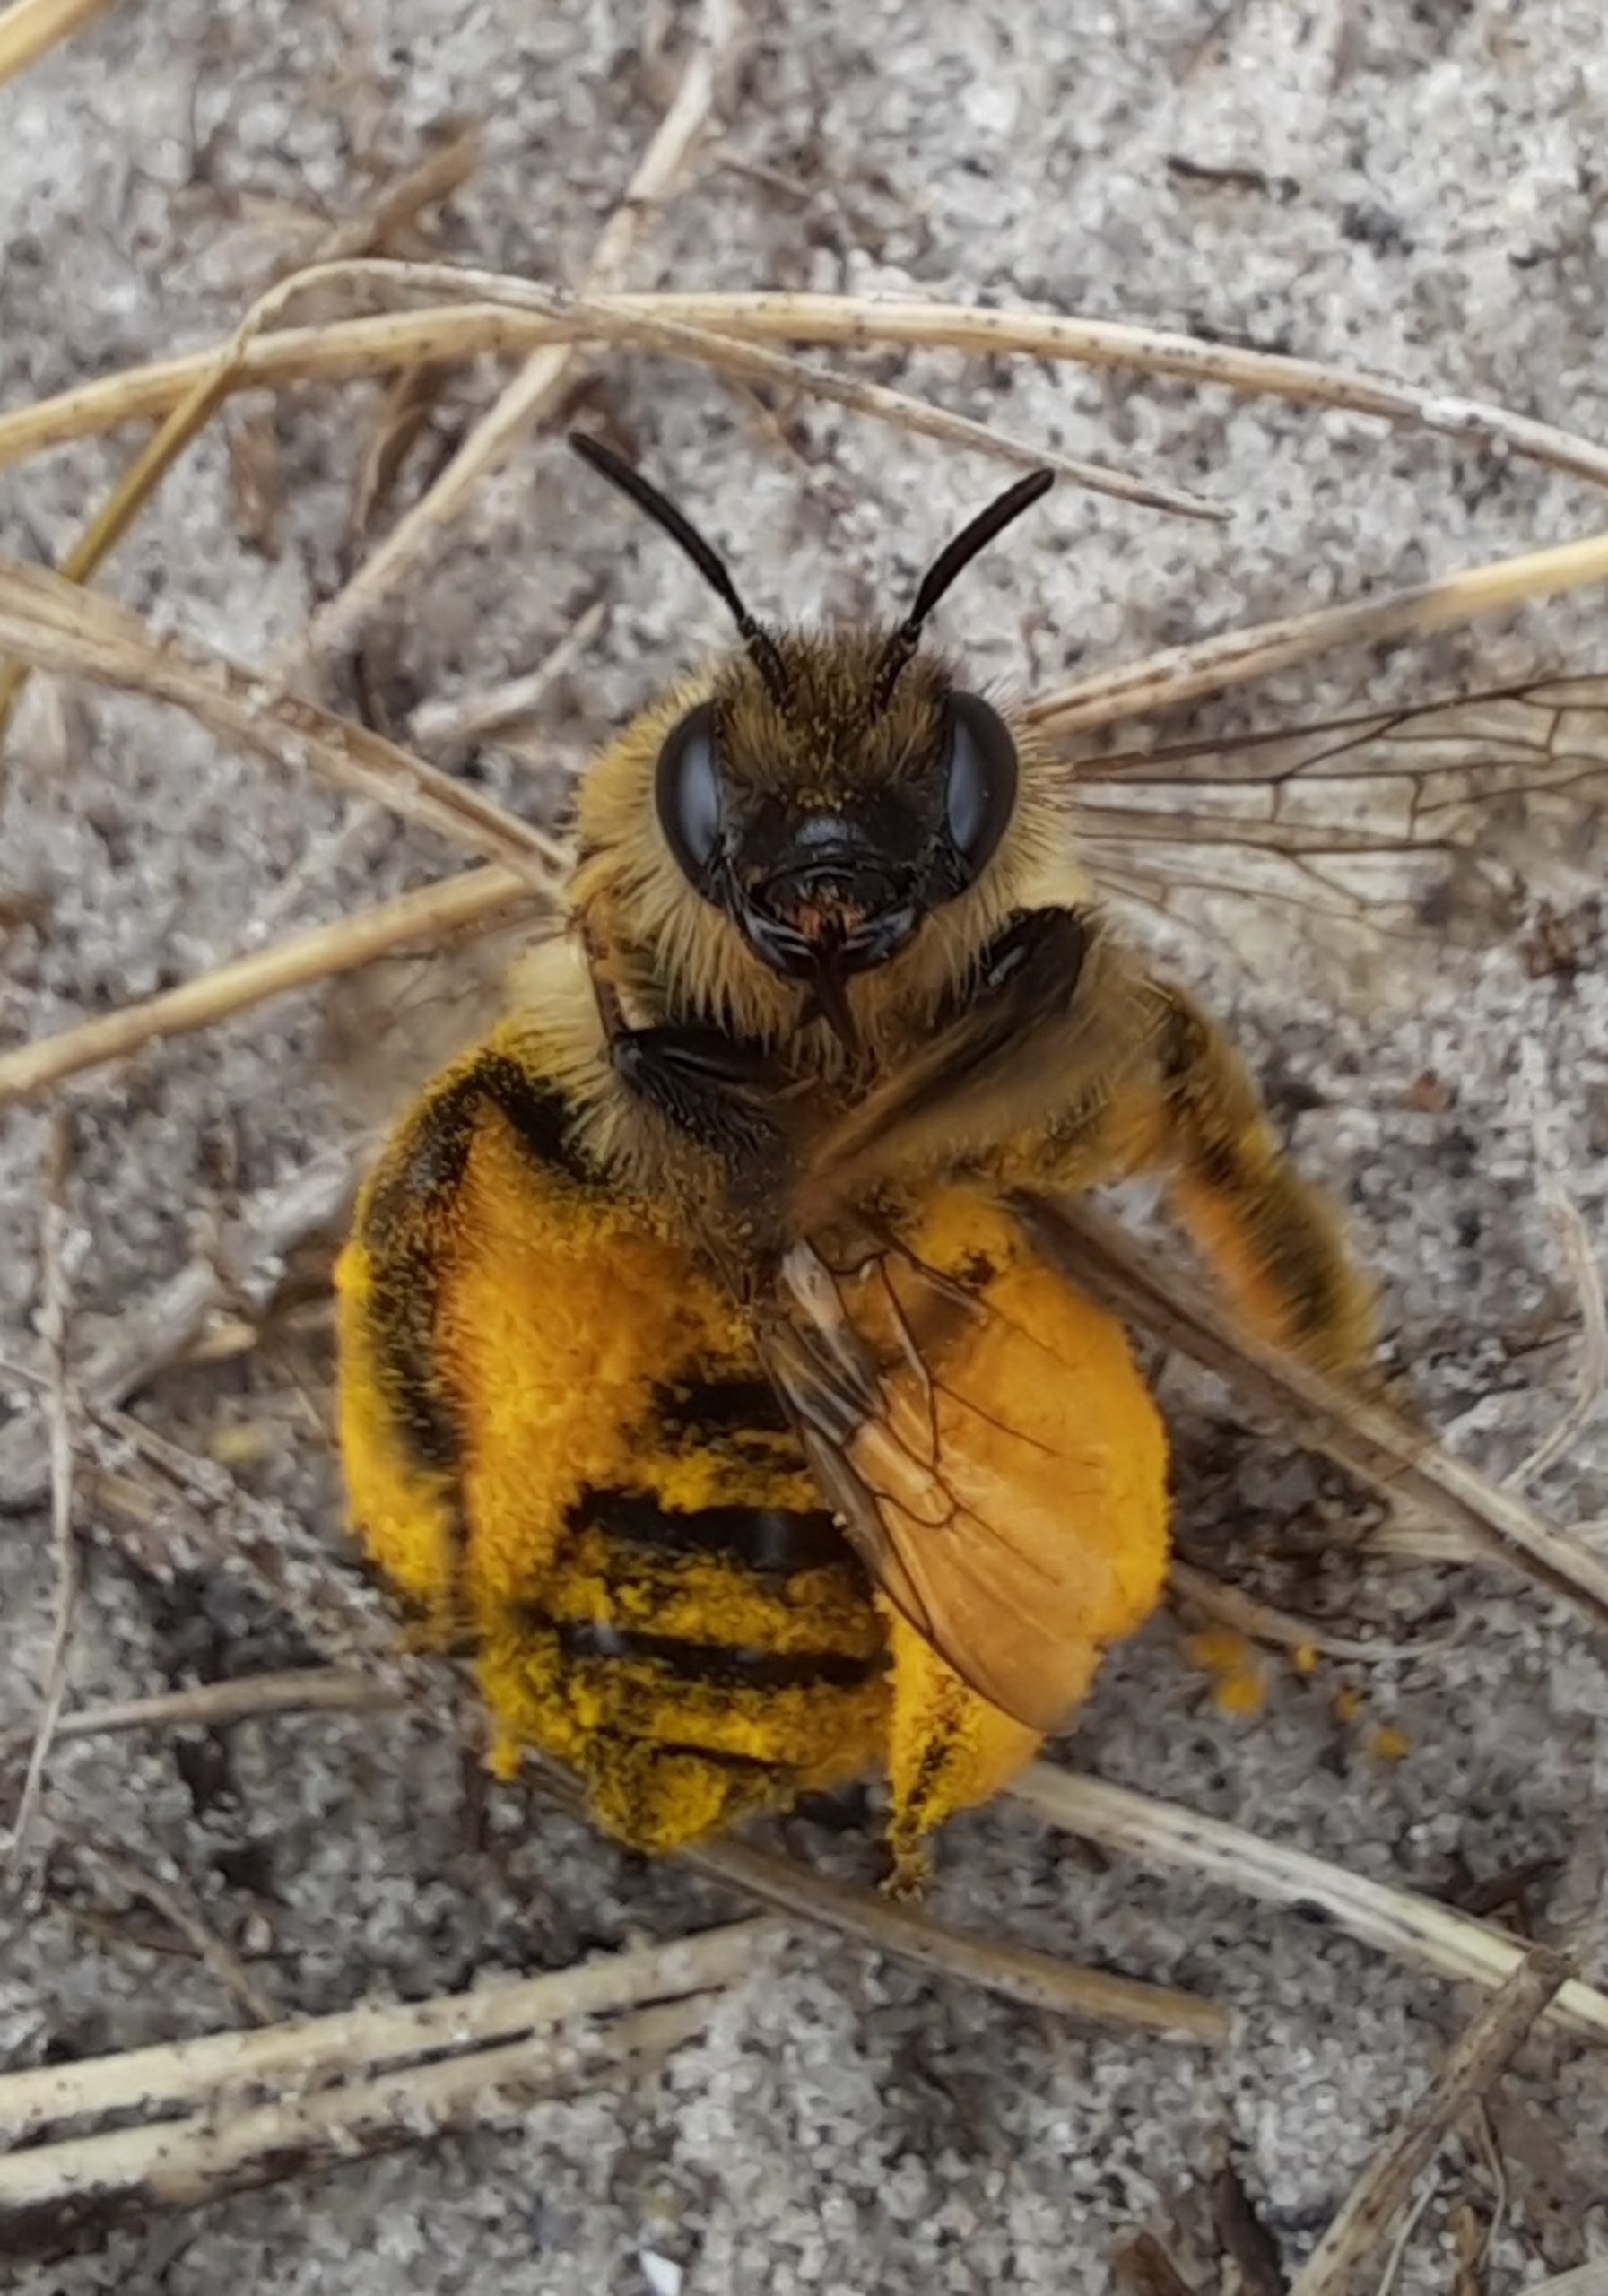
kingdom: Animalia
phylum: Arthropoda
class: Insecta
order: Hymenoptera
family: Melittidae
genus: Dasypoda
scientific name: Dasypoda hirtipes
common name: Pragtbuksebi
